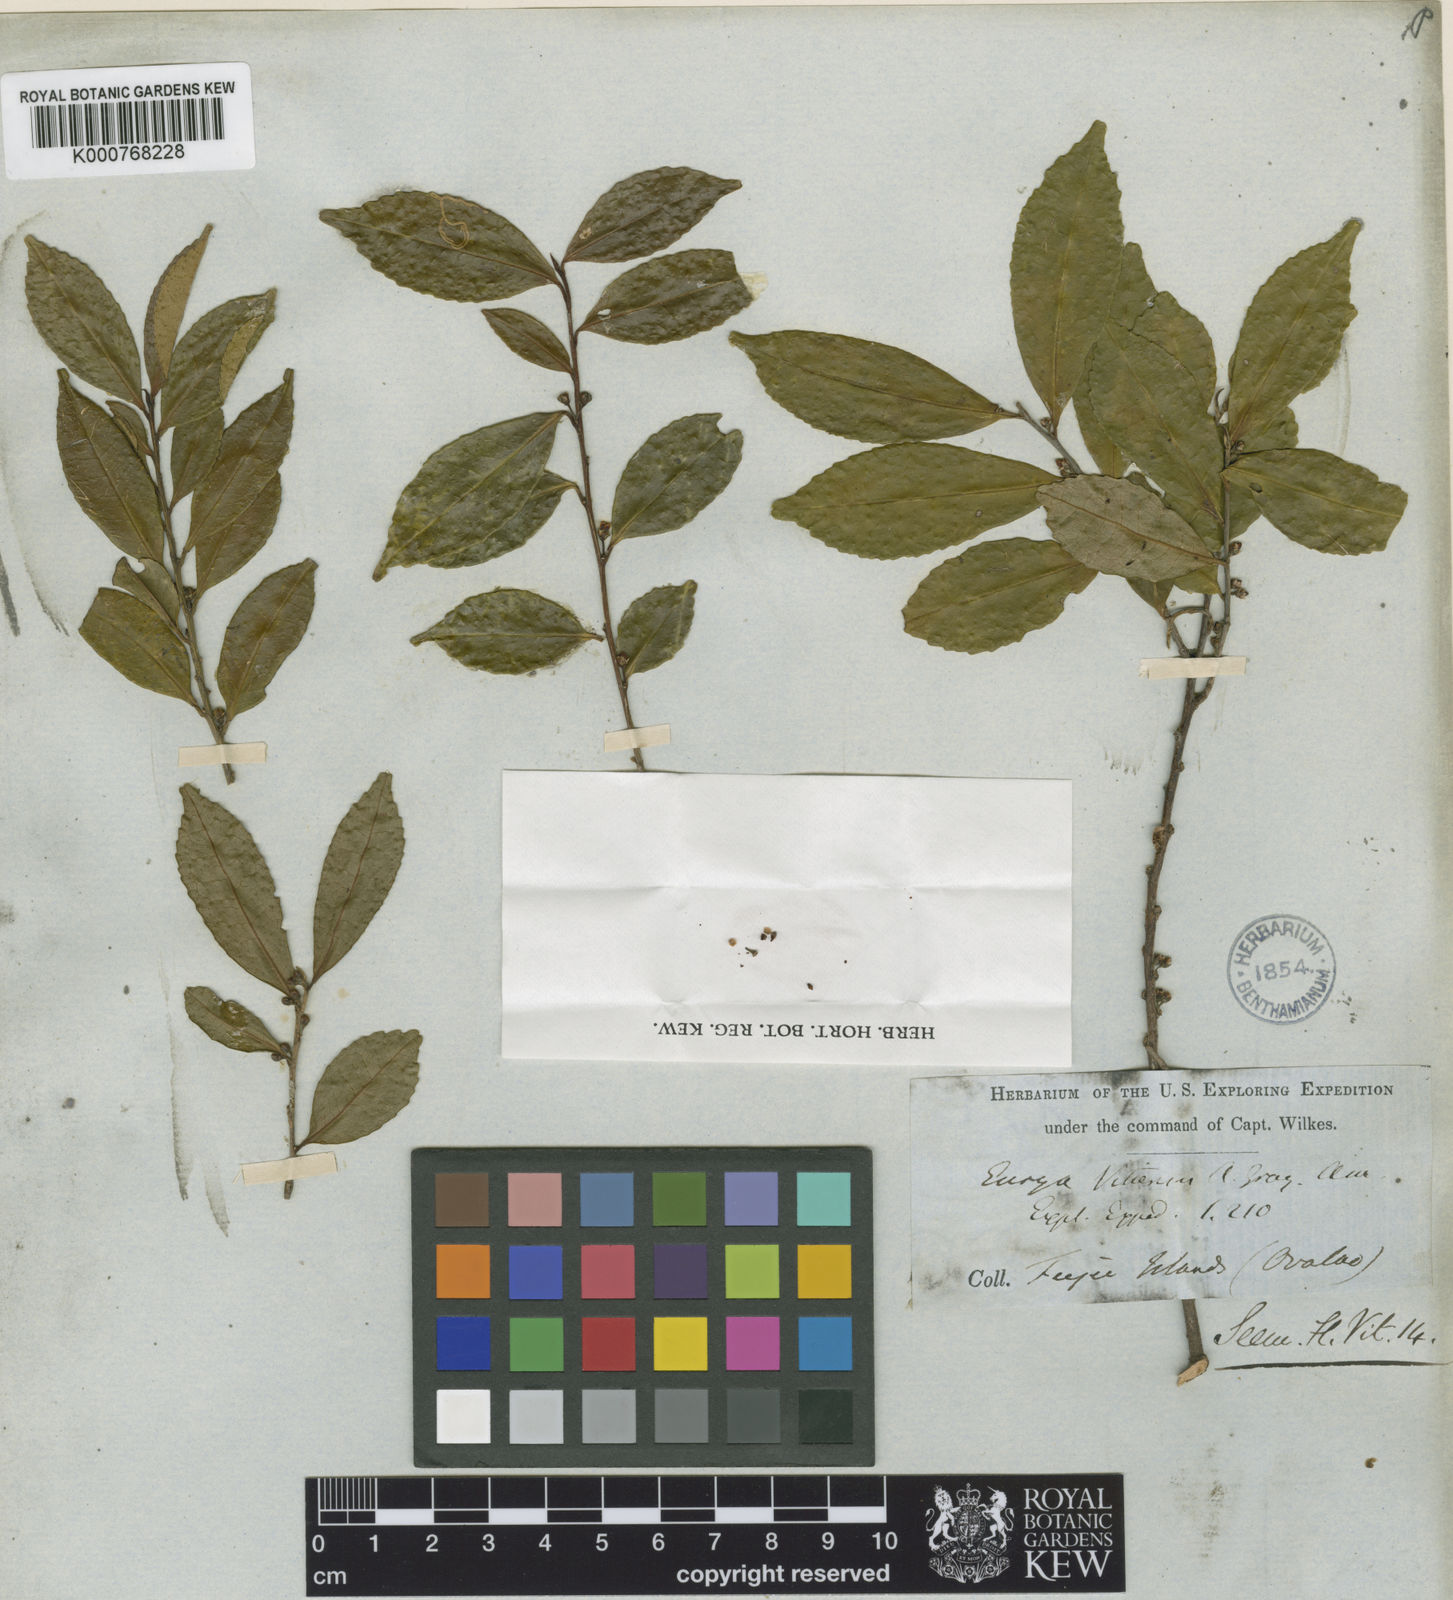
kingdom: Plantae
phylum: Tracheophyta
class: Magnoliopsida
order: Ericales
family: Pentaphylacaceae
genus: Eurya
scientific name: Eurya
